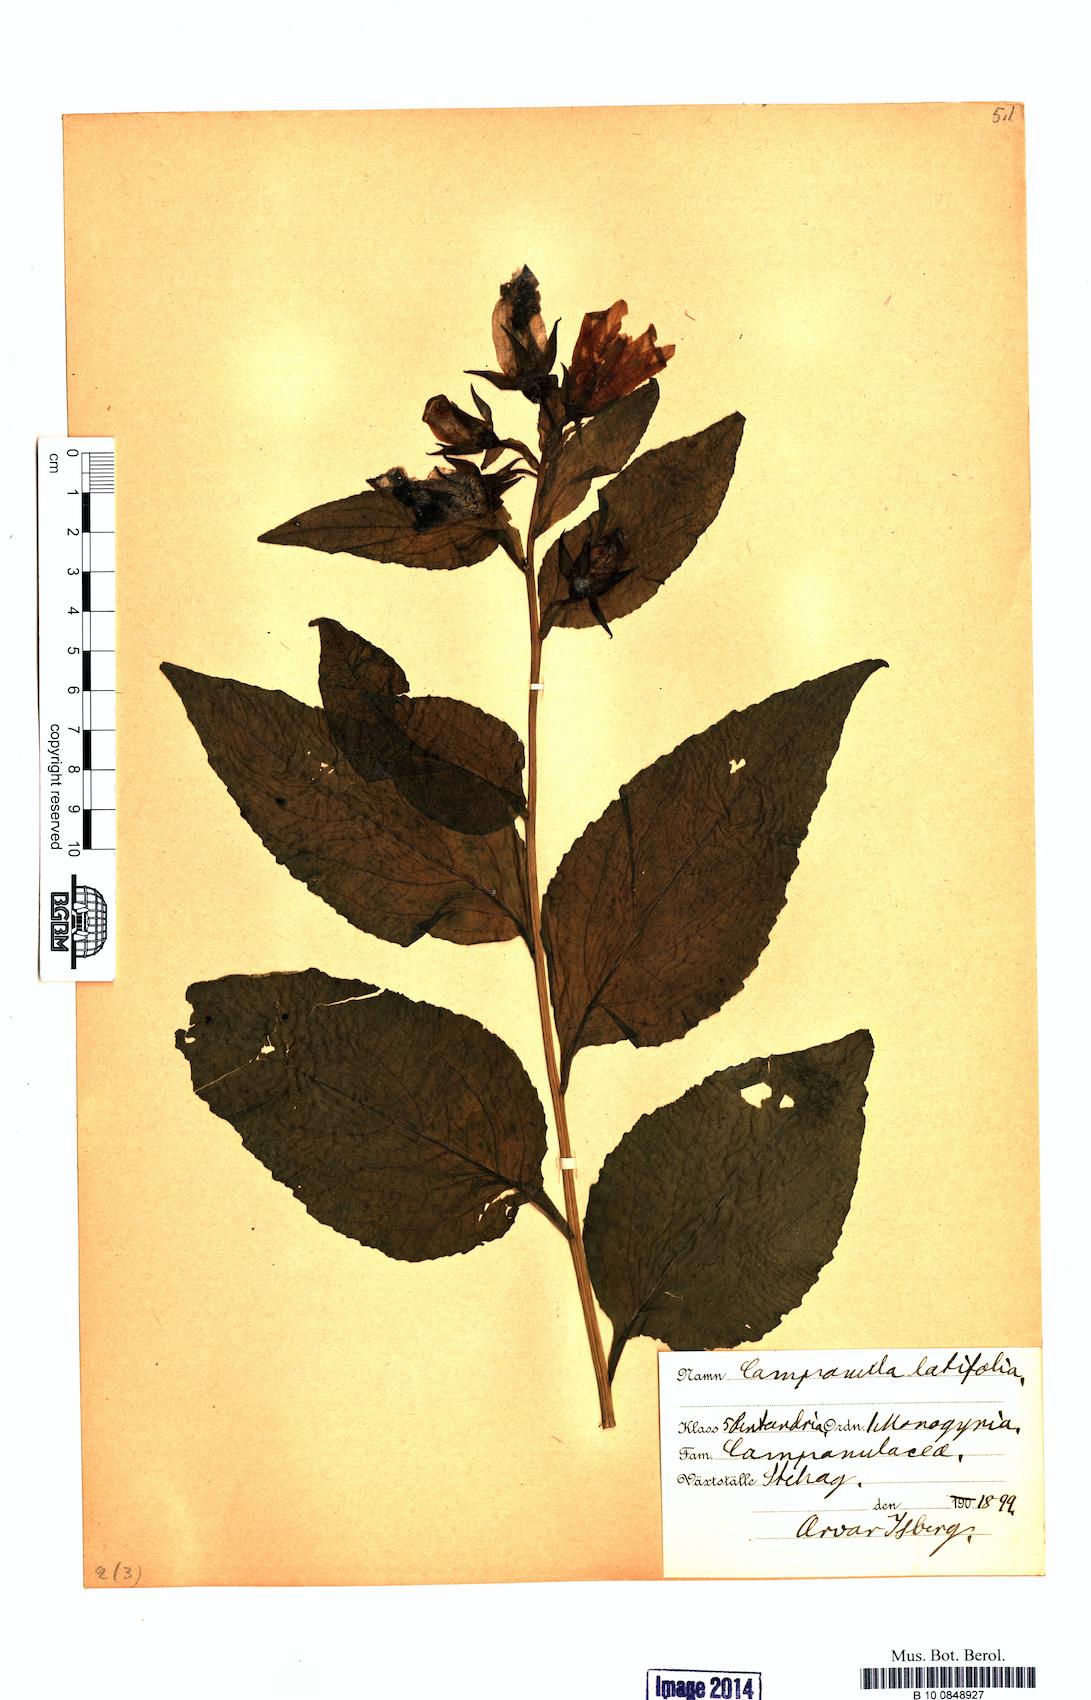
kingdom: Plantae
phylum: Tracheophyta
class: Magnoliopsida
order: Asterales
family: Campanulaceae
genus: Campanula
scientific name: Campanula latifolia
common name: Giant bellflower
